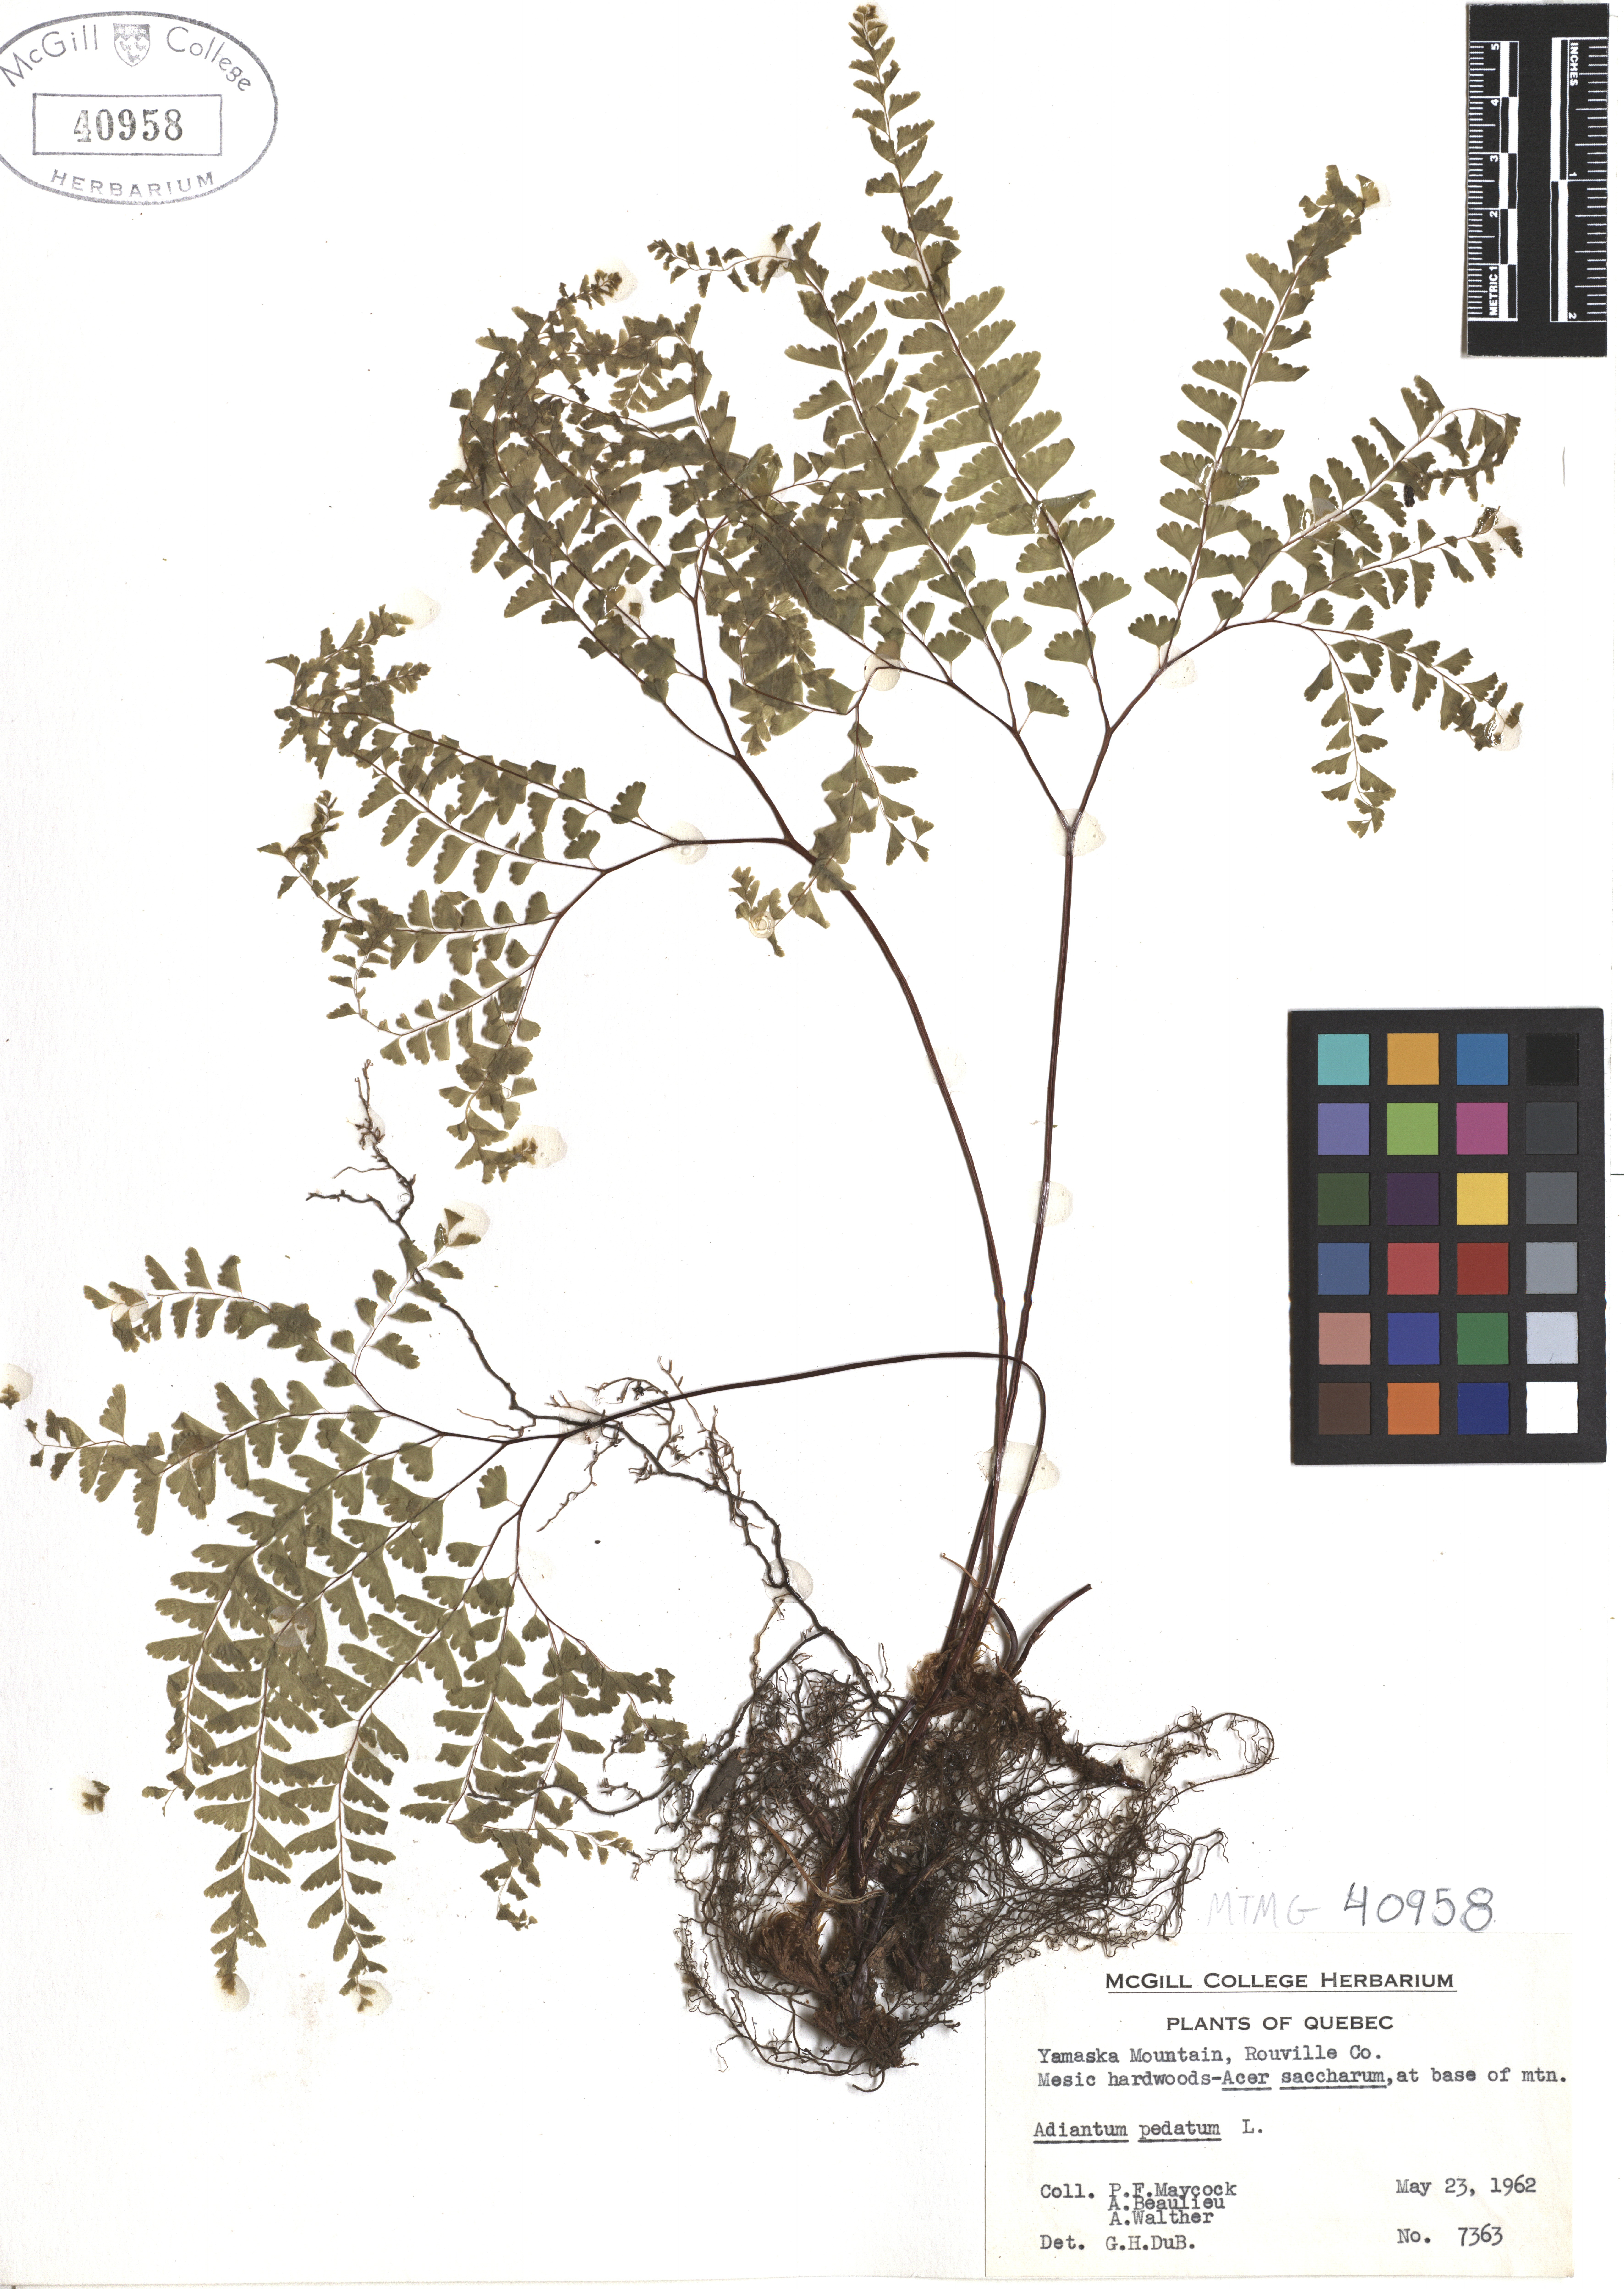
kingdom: Plantae
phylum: Tracheophyta
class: Polypodiopsida
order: Polypodiales
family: Pteridaceae
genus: Adiantum
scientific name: Adiantum pedatum
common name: Five-finger fern
